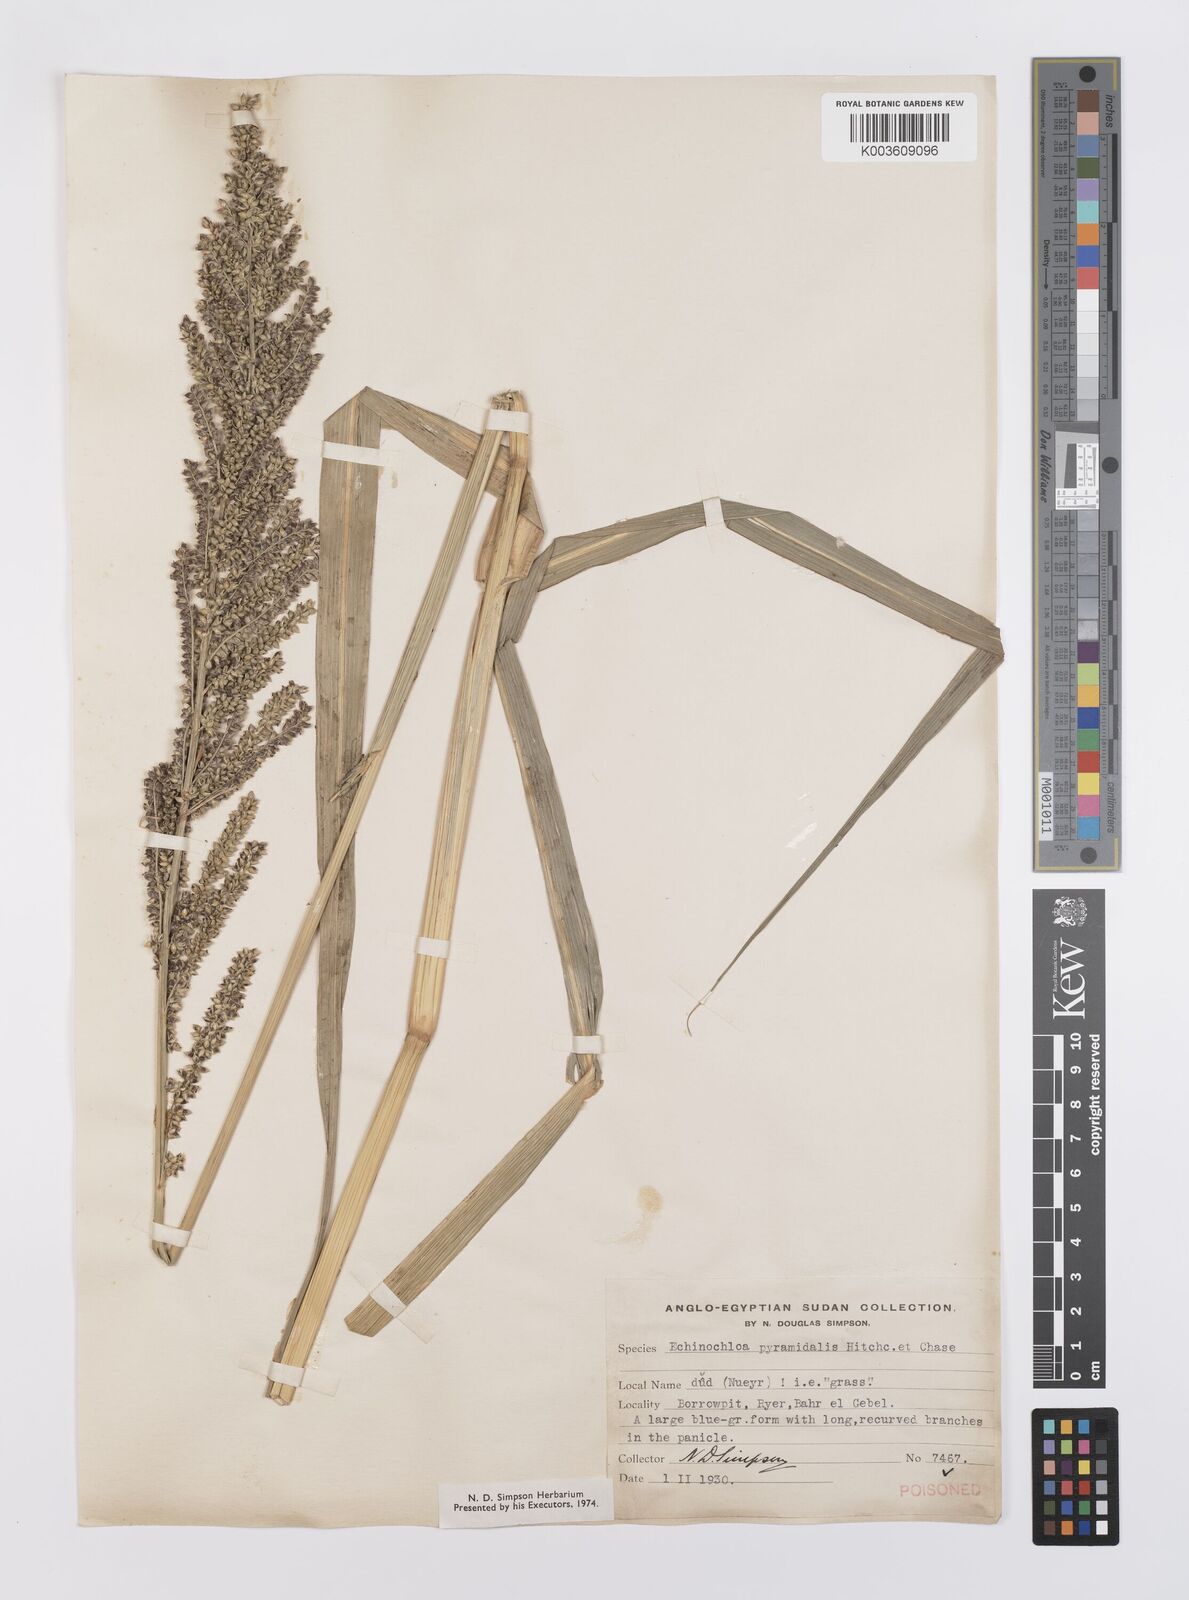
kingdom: Plantae
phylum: Tracheophyta
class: Liliopsida
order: Poales
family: Poaceae
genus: Echinochloa
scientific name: Echinochloa pyramidalis
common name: Antelope grass
